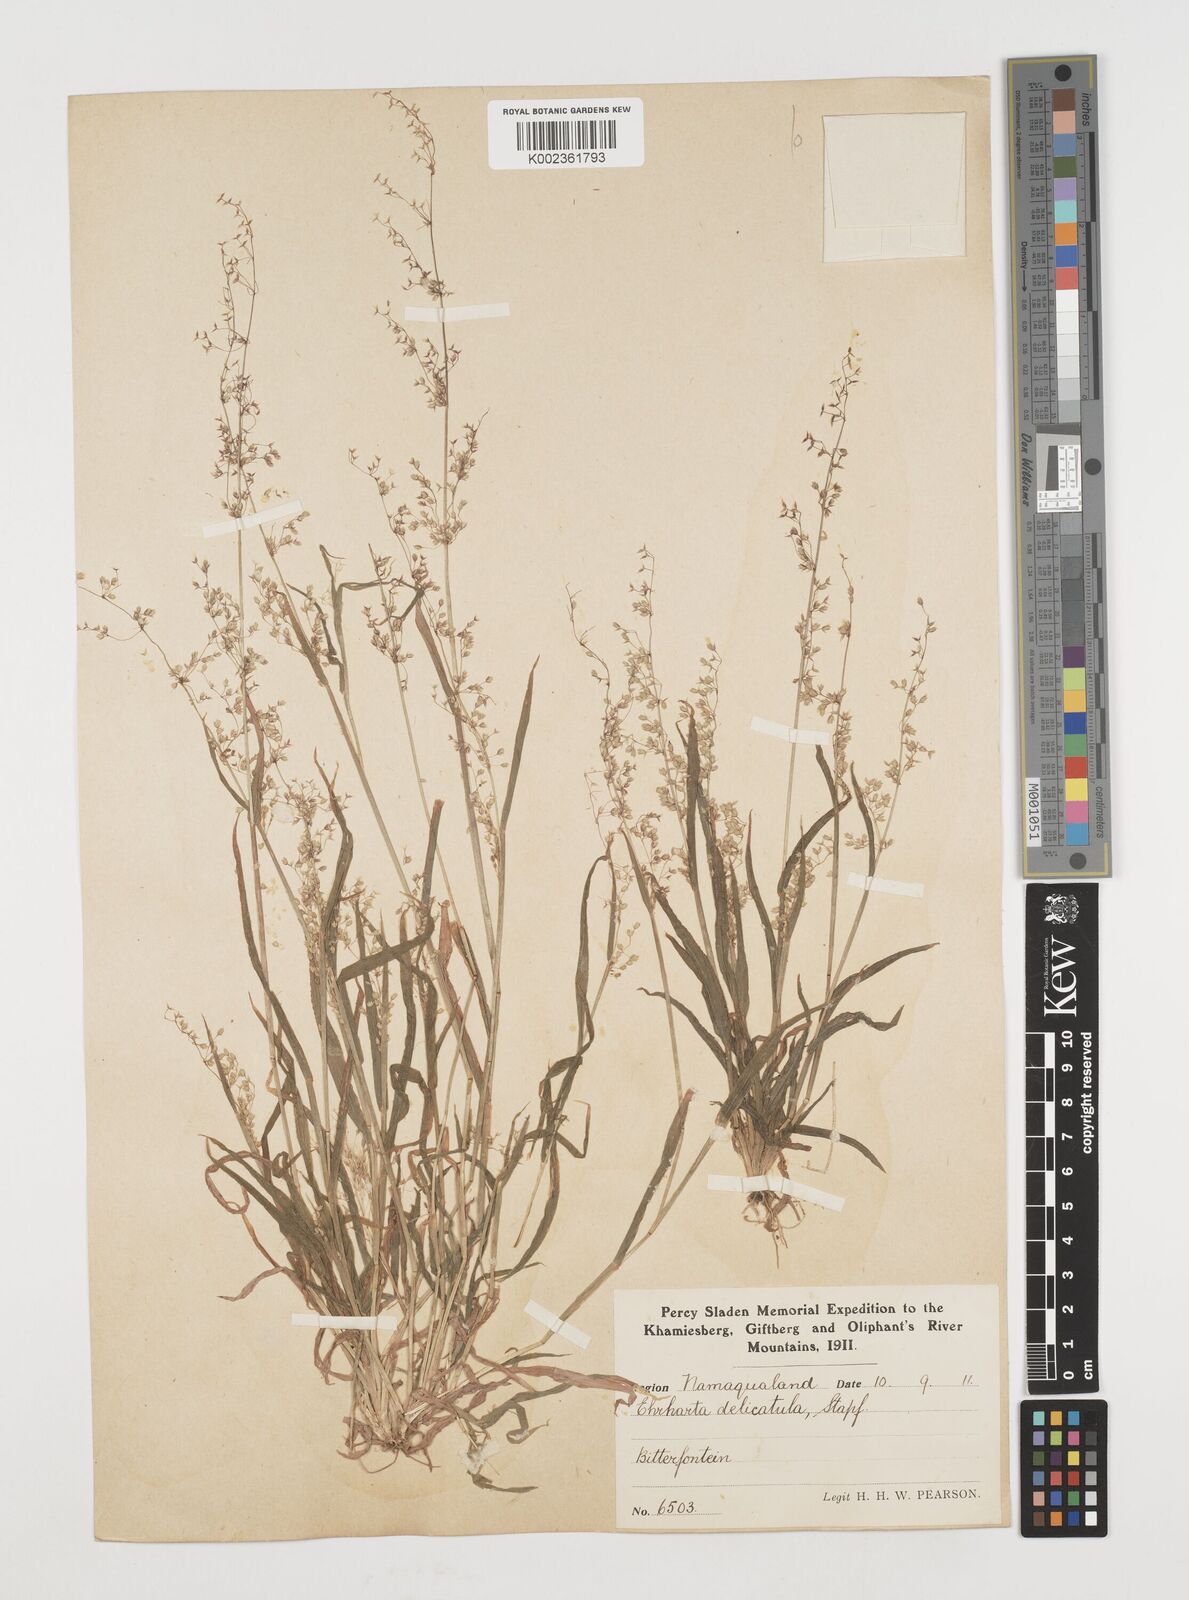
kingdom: Plantae
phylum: Tracheophyta
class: Liliopsida
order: Poales
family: Poaceae
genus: Ehrharta
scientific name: Ehrharta delicatula
